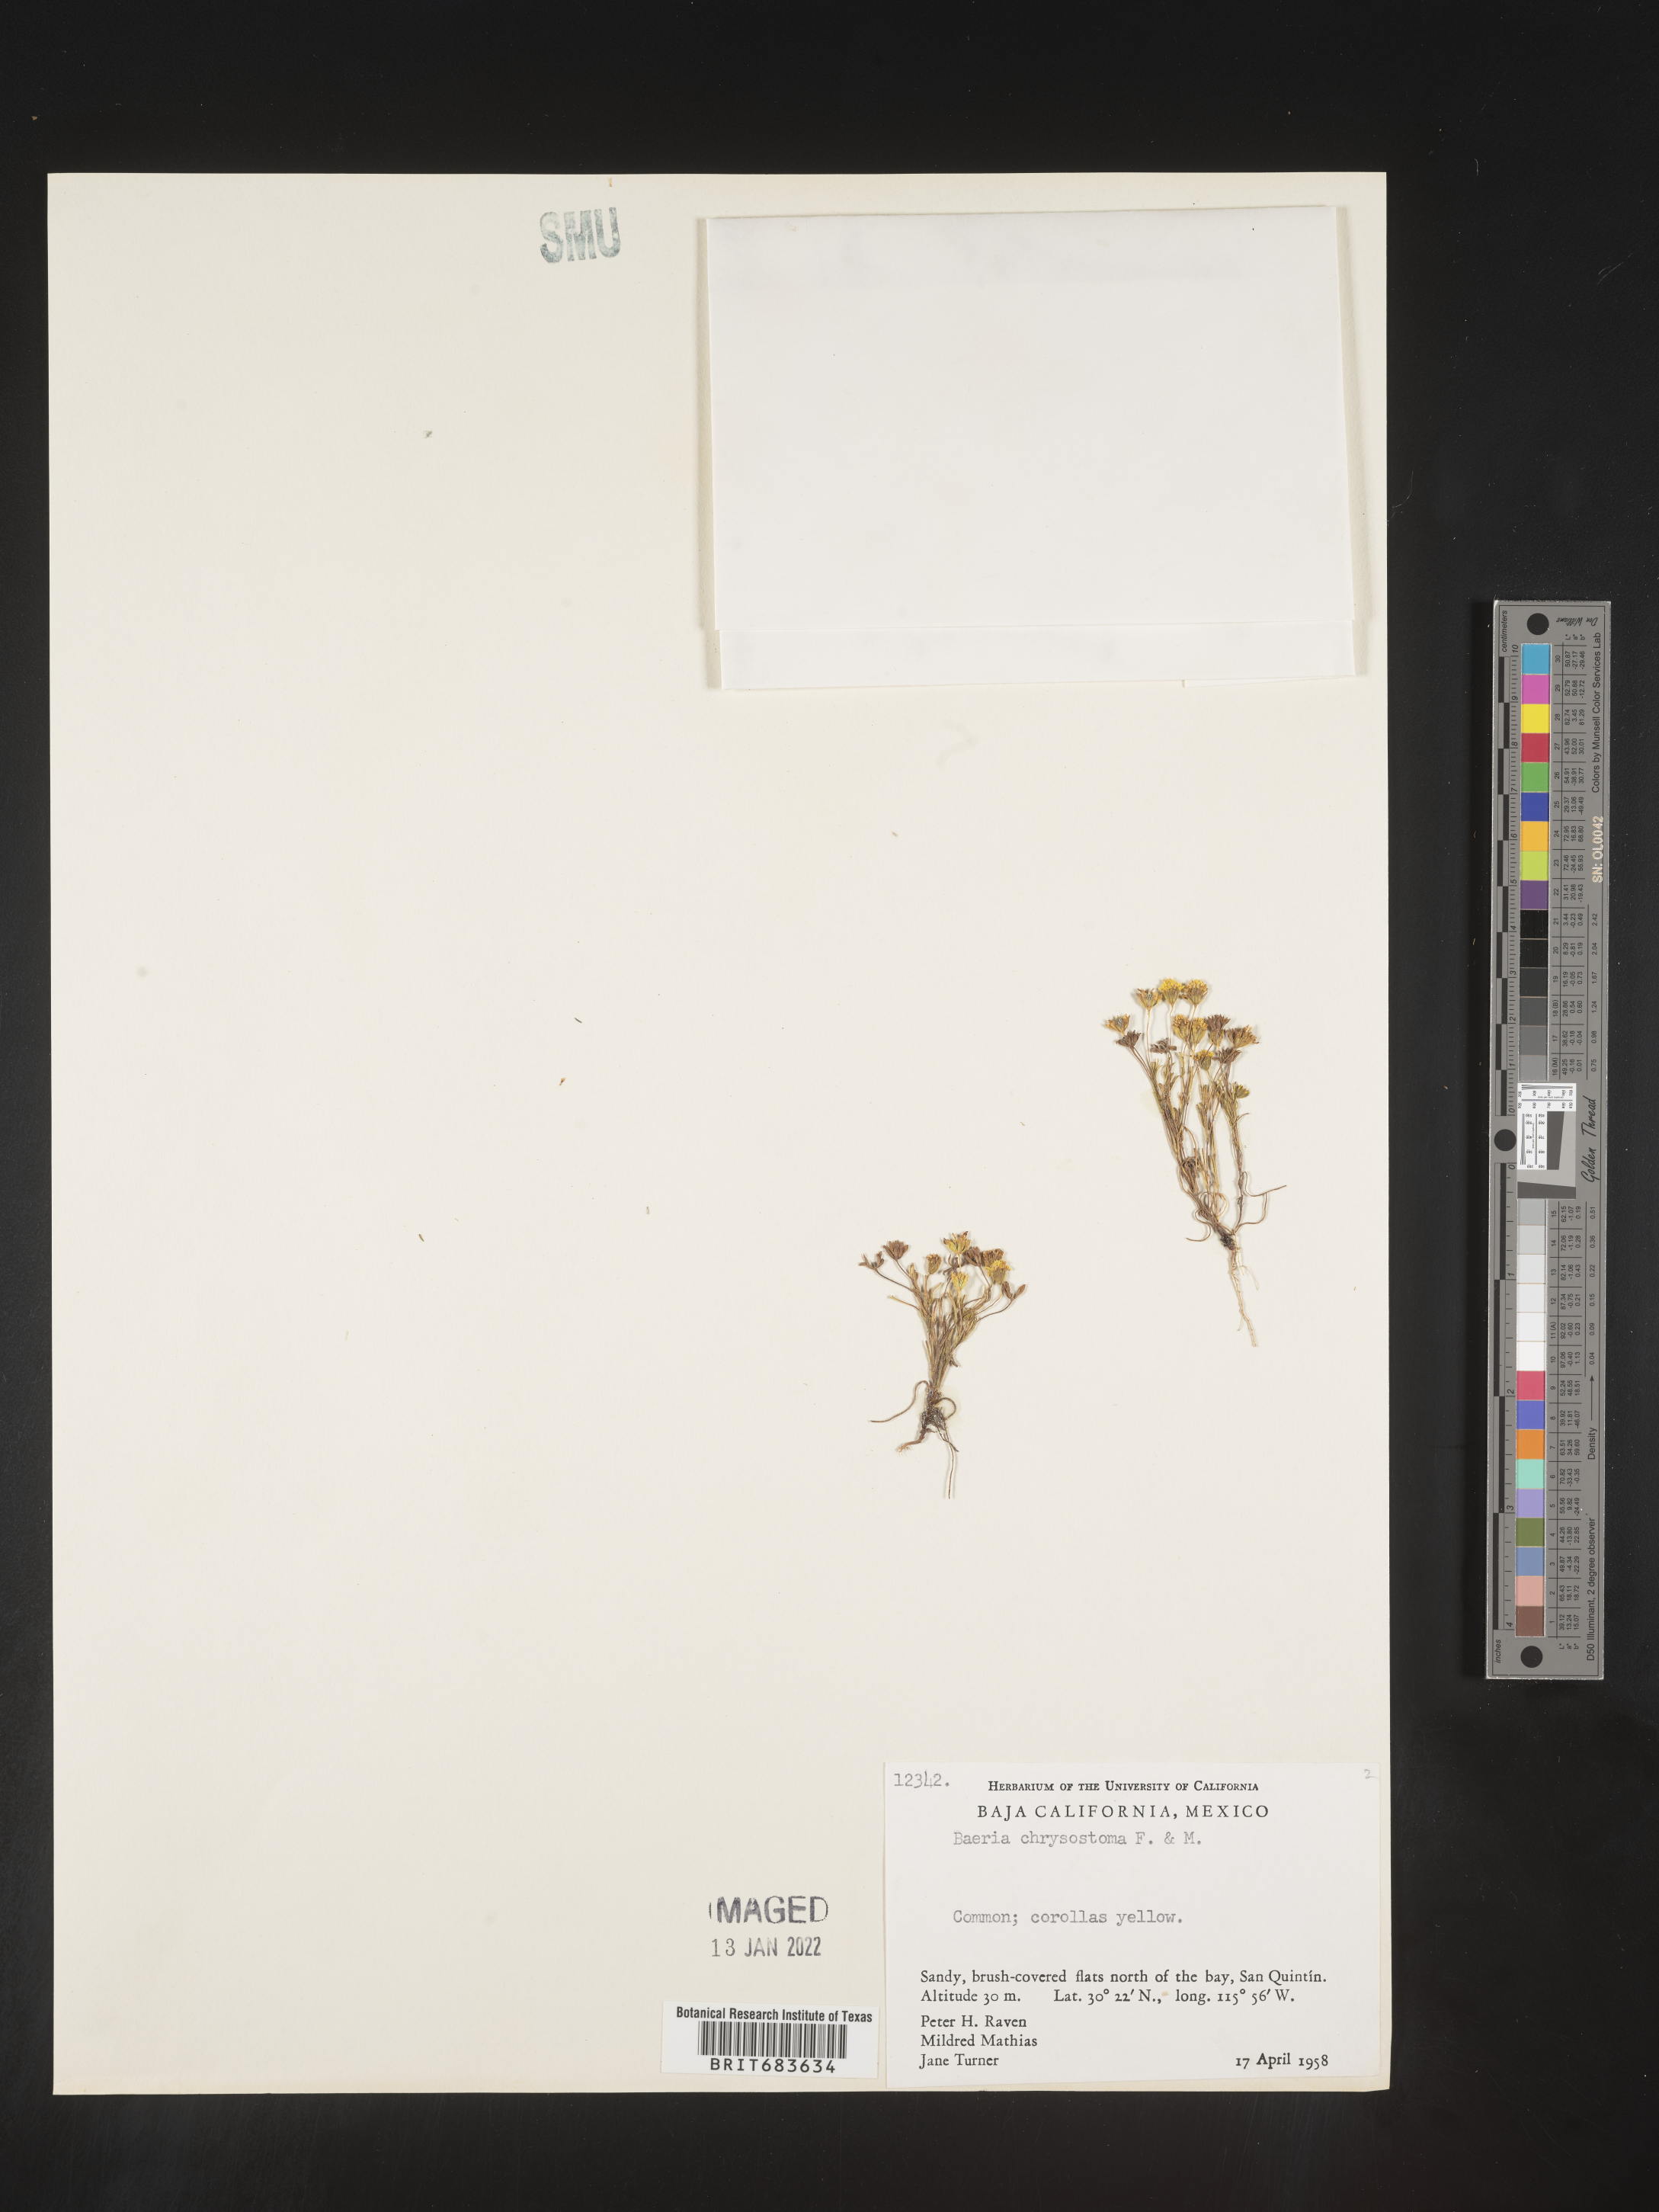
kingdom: Plantae
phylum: Tracheophyta
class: Magnoliopsida
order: Asterales
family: Asteraceae
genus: Lasthenia
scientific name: Lasthenia
